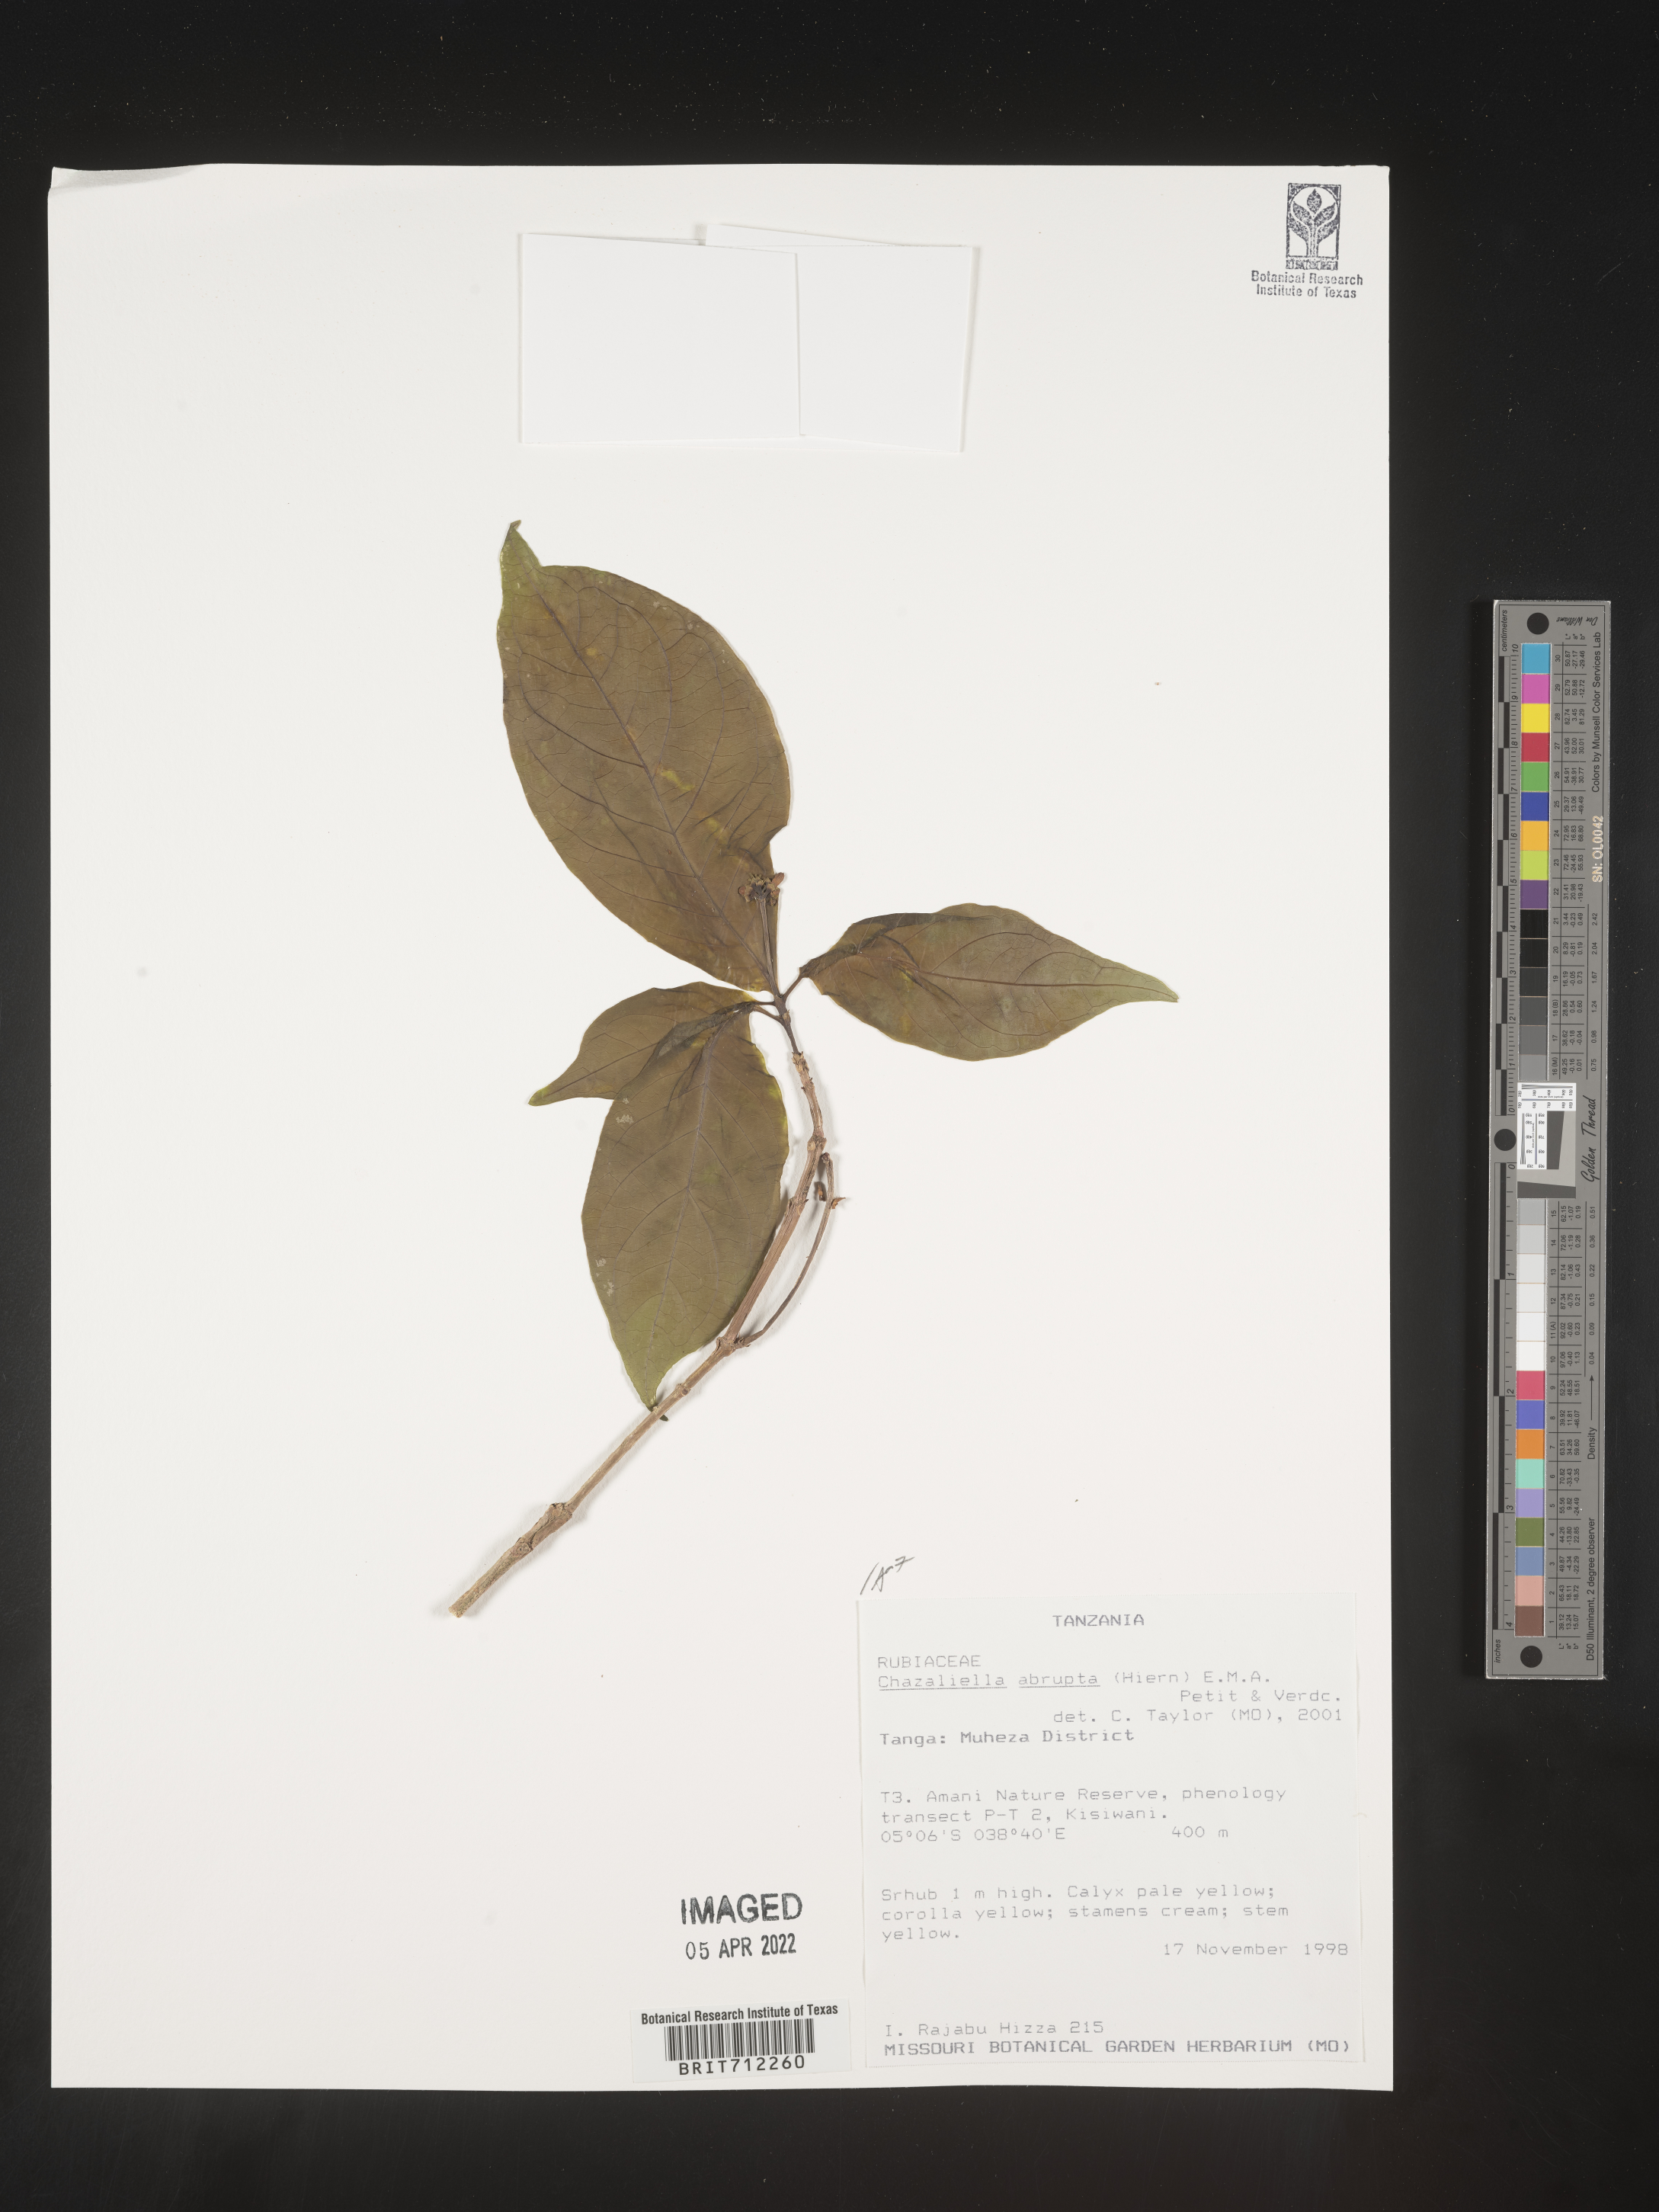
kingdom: Plantae
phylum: Tracheophyta
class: Magnoliopsida
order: Gentianales
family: Rubiaceae
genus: Eumachia
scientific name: Eumachia
